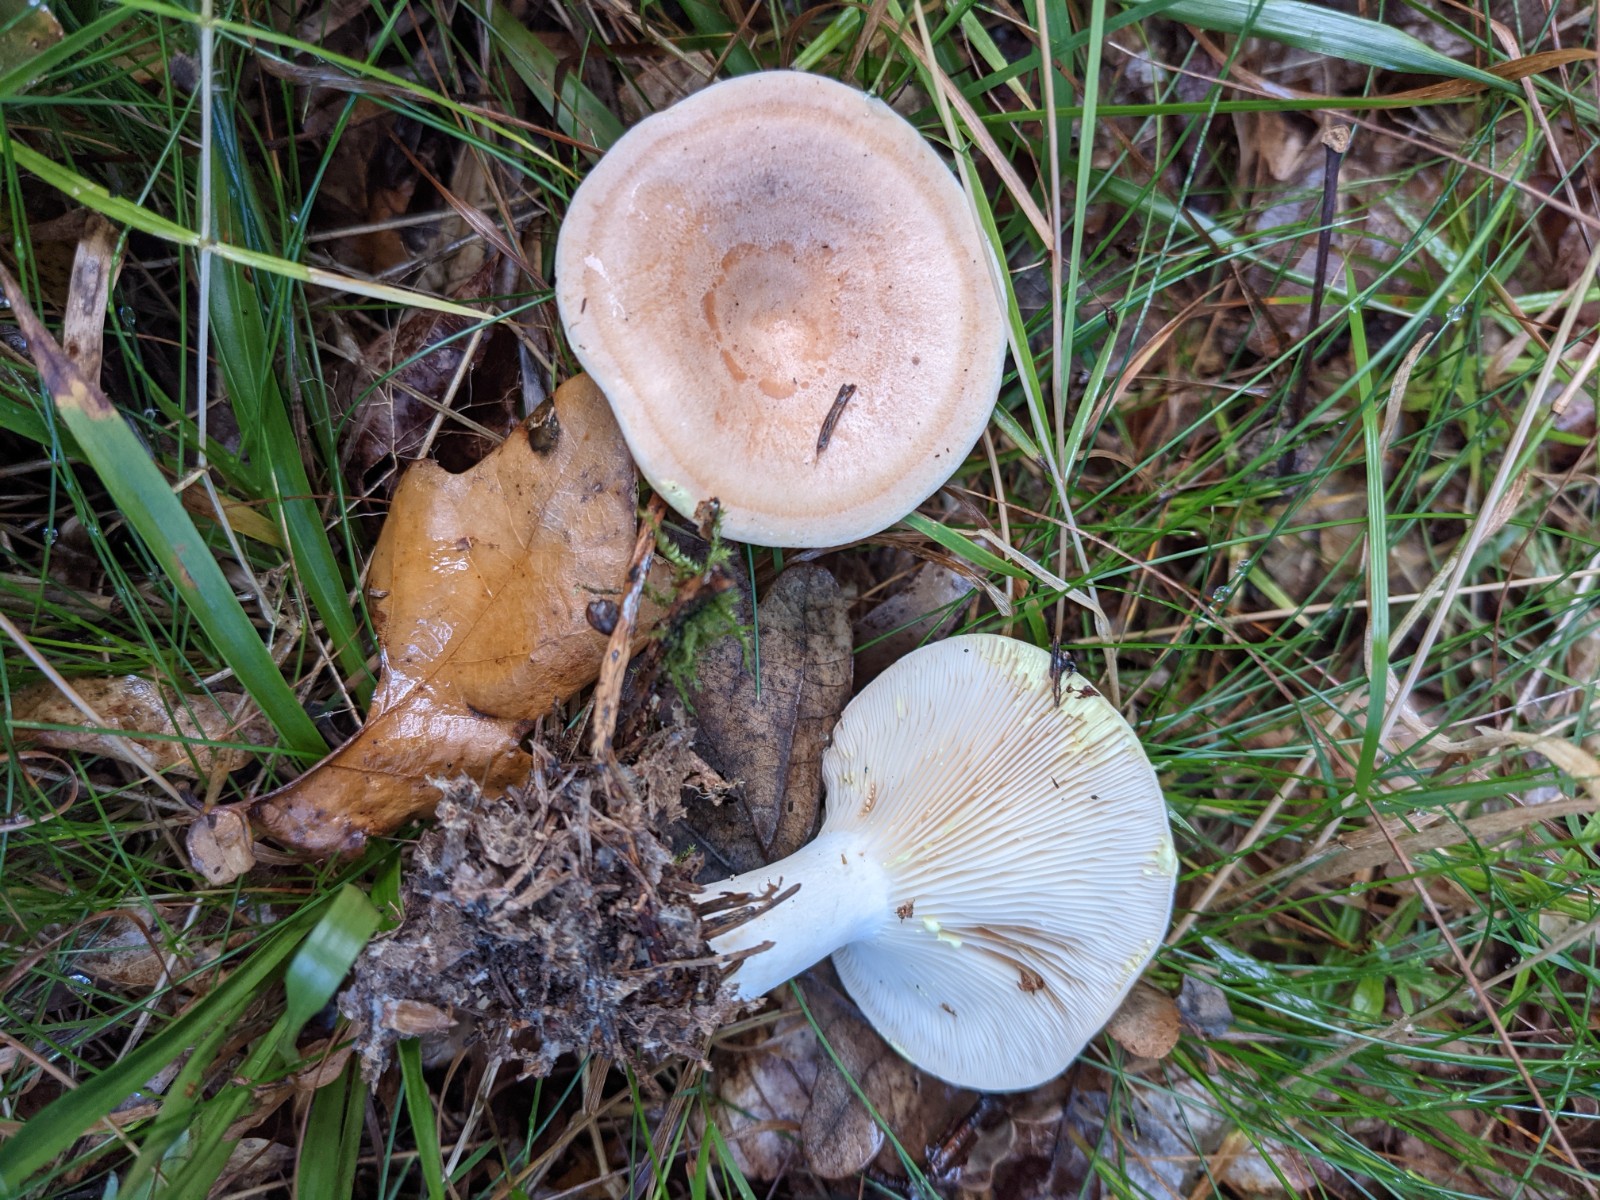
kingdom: Fungi
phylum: Basidiomycota
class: Agaricomycetes
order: Russulales
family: Russulaceae
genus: Lactarius
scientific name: Lactarius chrysorrheus
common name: svovlmælket mælkehat
